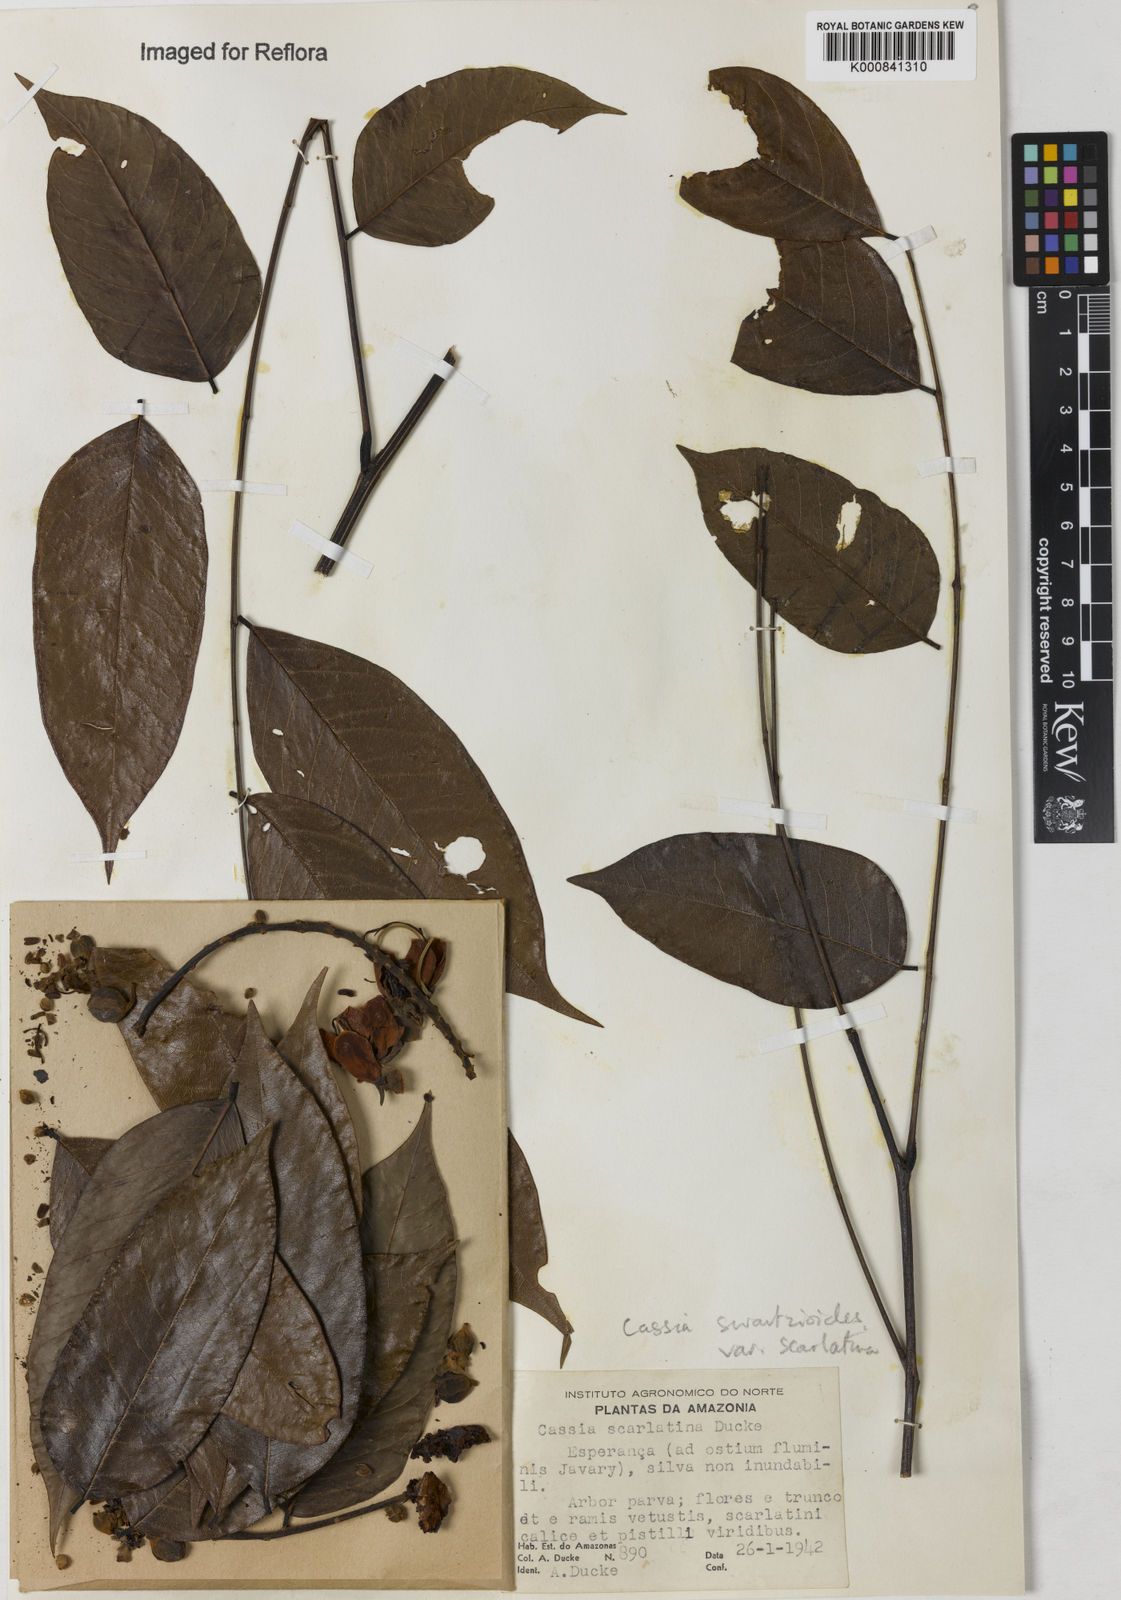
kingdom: Plantae
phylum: Tracheophyta
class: Magnoliopsida
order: Fabales
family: Fabaceae
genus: Cassia
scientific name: Cassia swartzioides
